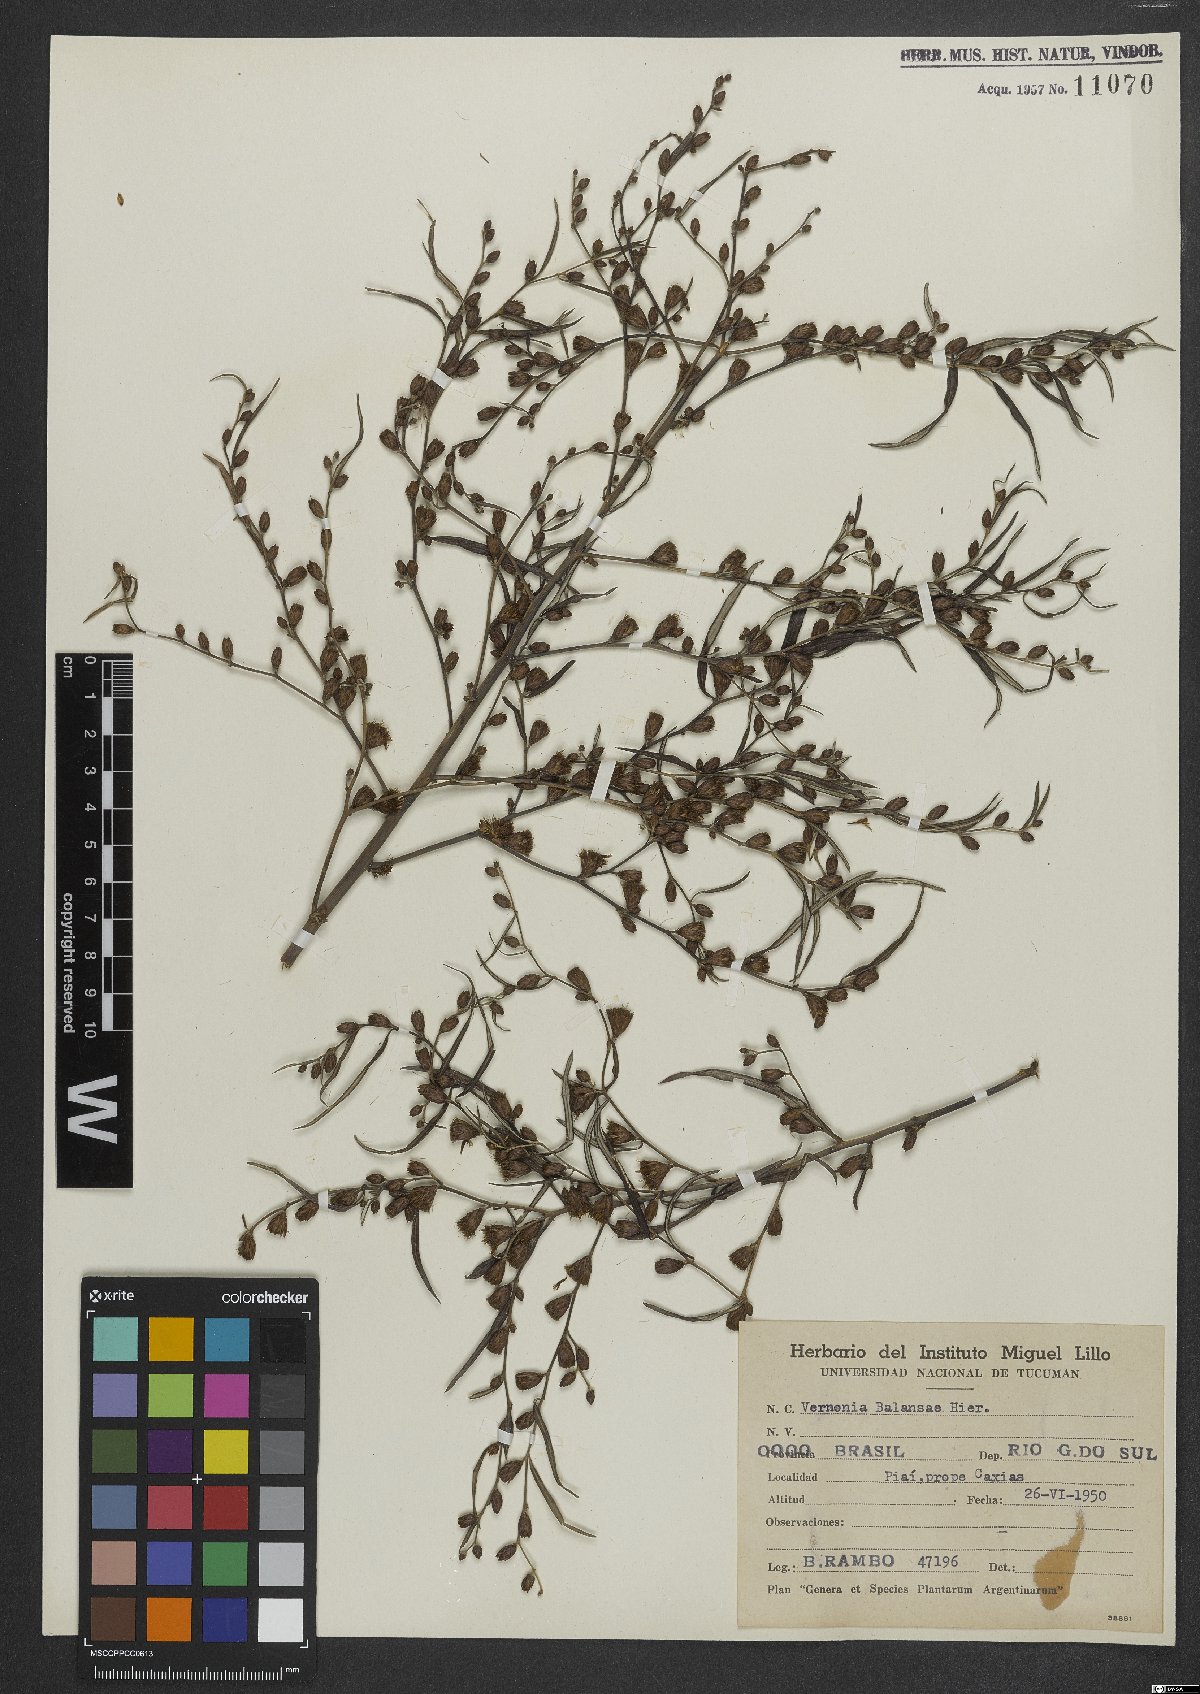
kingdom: Plantae
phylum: Tracheophyta
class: Magnoliopsida
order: Asterales
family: Asteraceae
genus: Lepidaploa
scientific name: Lepidaploa balansae
